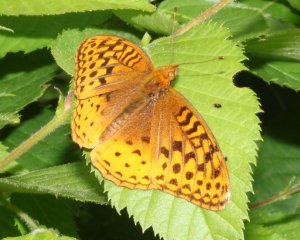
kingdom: Animalia
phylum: Arthropoda
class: Insecta
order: Lepidoptera
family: Nymphalidae
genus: Speyeria
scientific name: Speyeria cybele
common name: Great Spangled Fritillary
